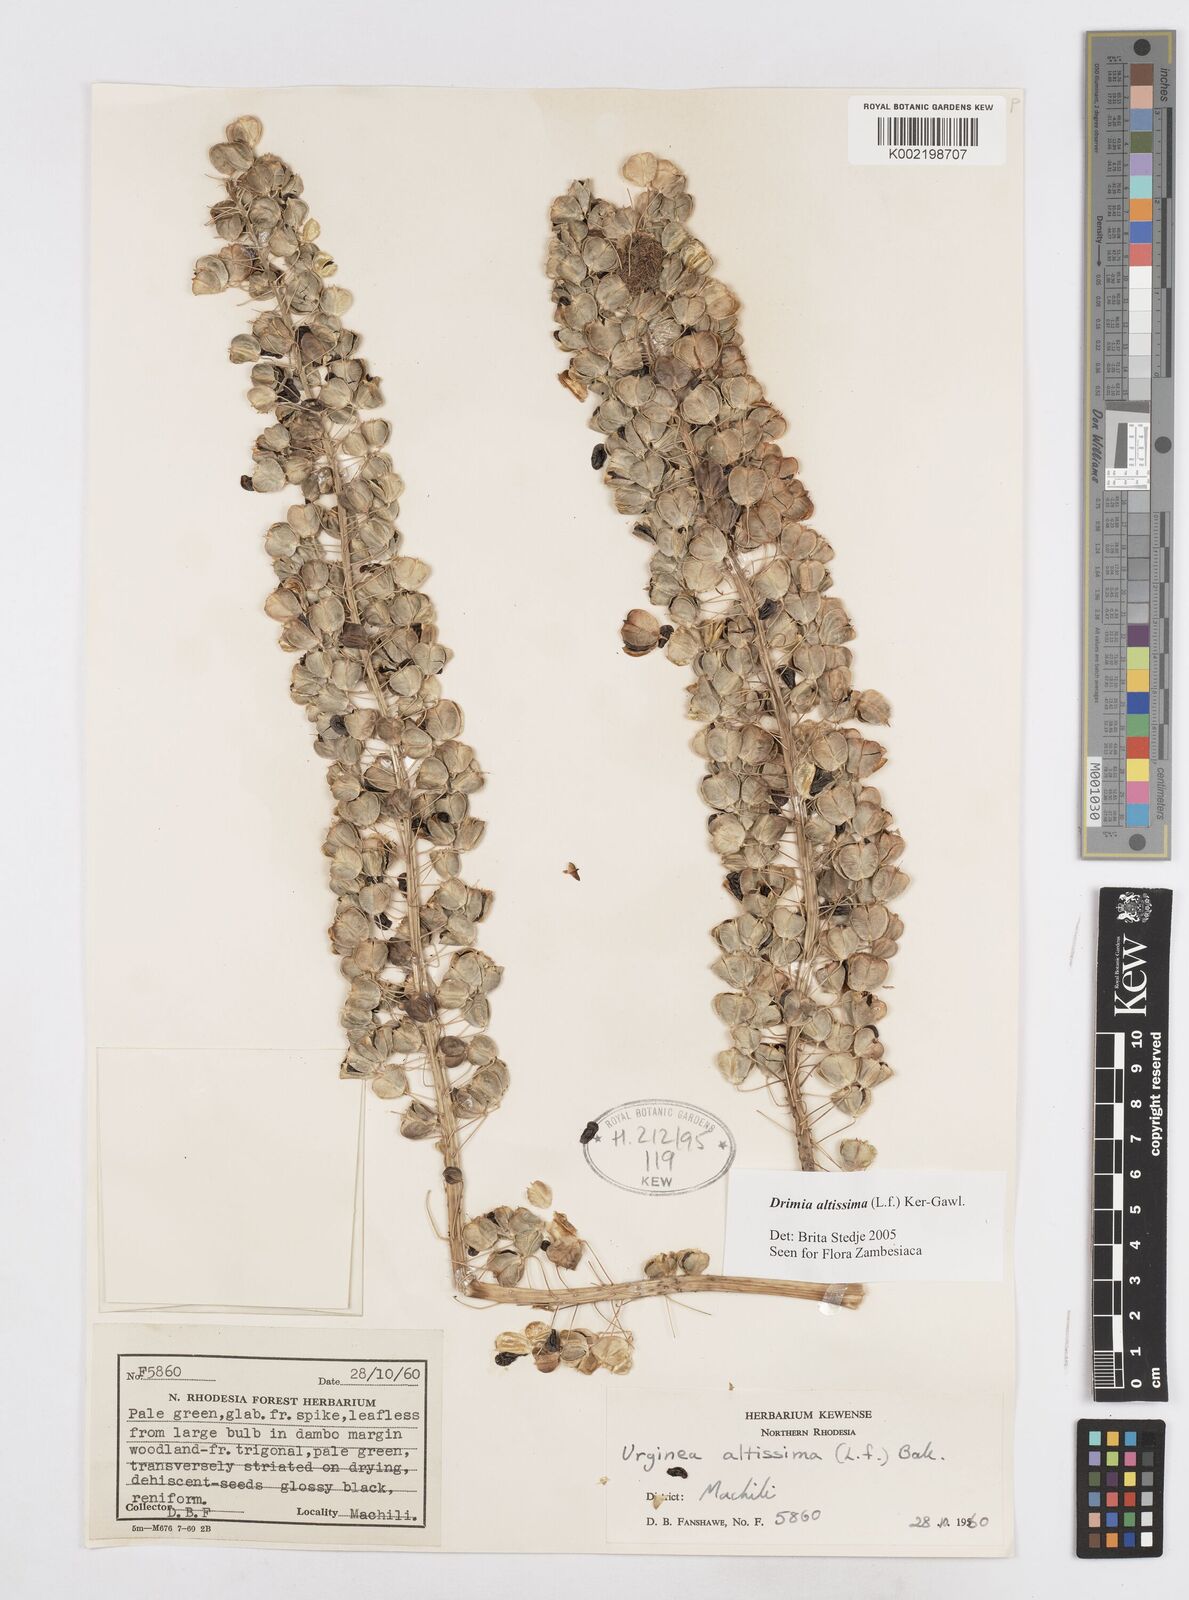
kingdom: Plantae
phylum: Tracheophyta
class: Liliopsida
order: Asparagales
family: Asparagaceae
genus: Drimia
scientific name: Drimia
